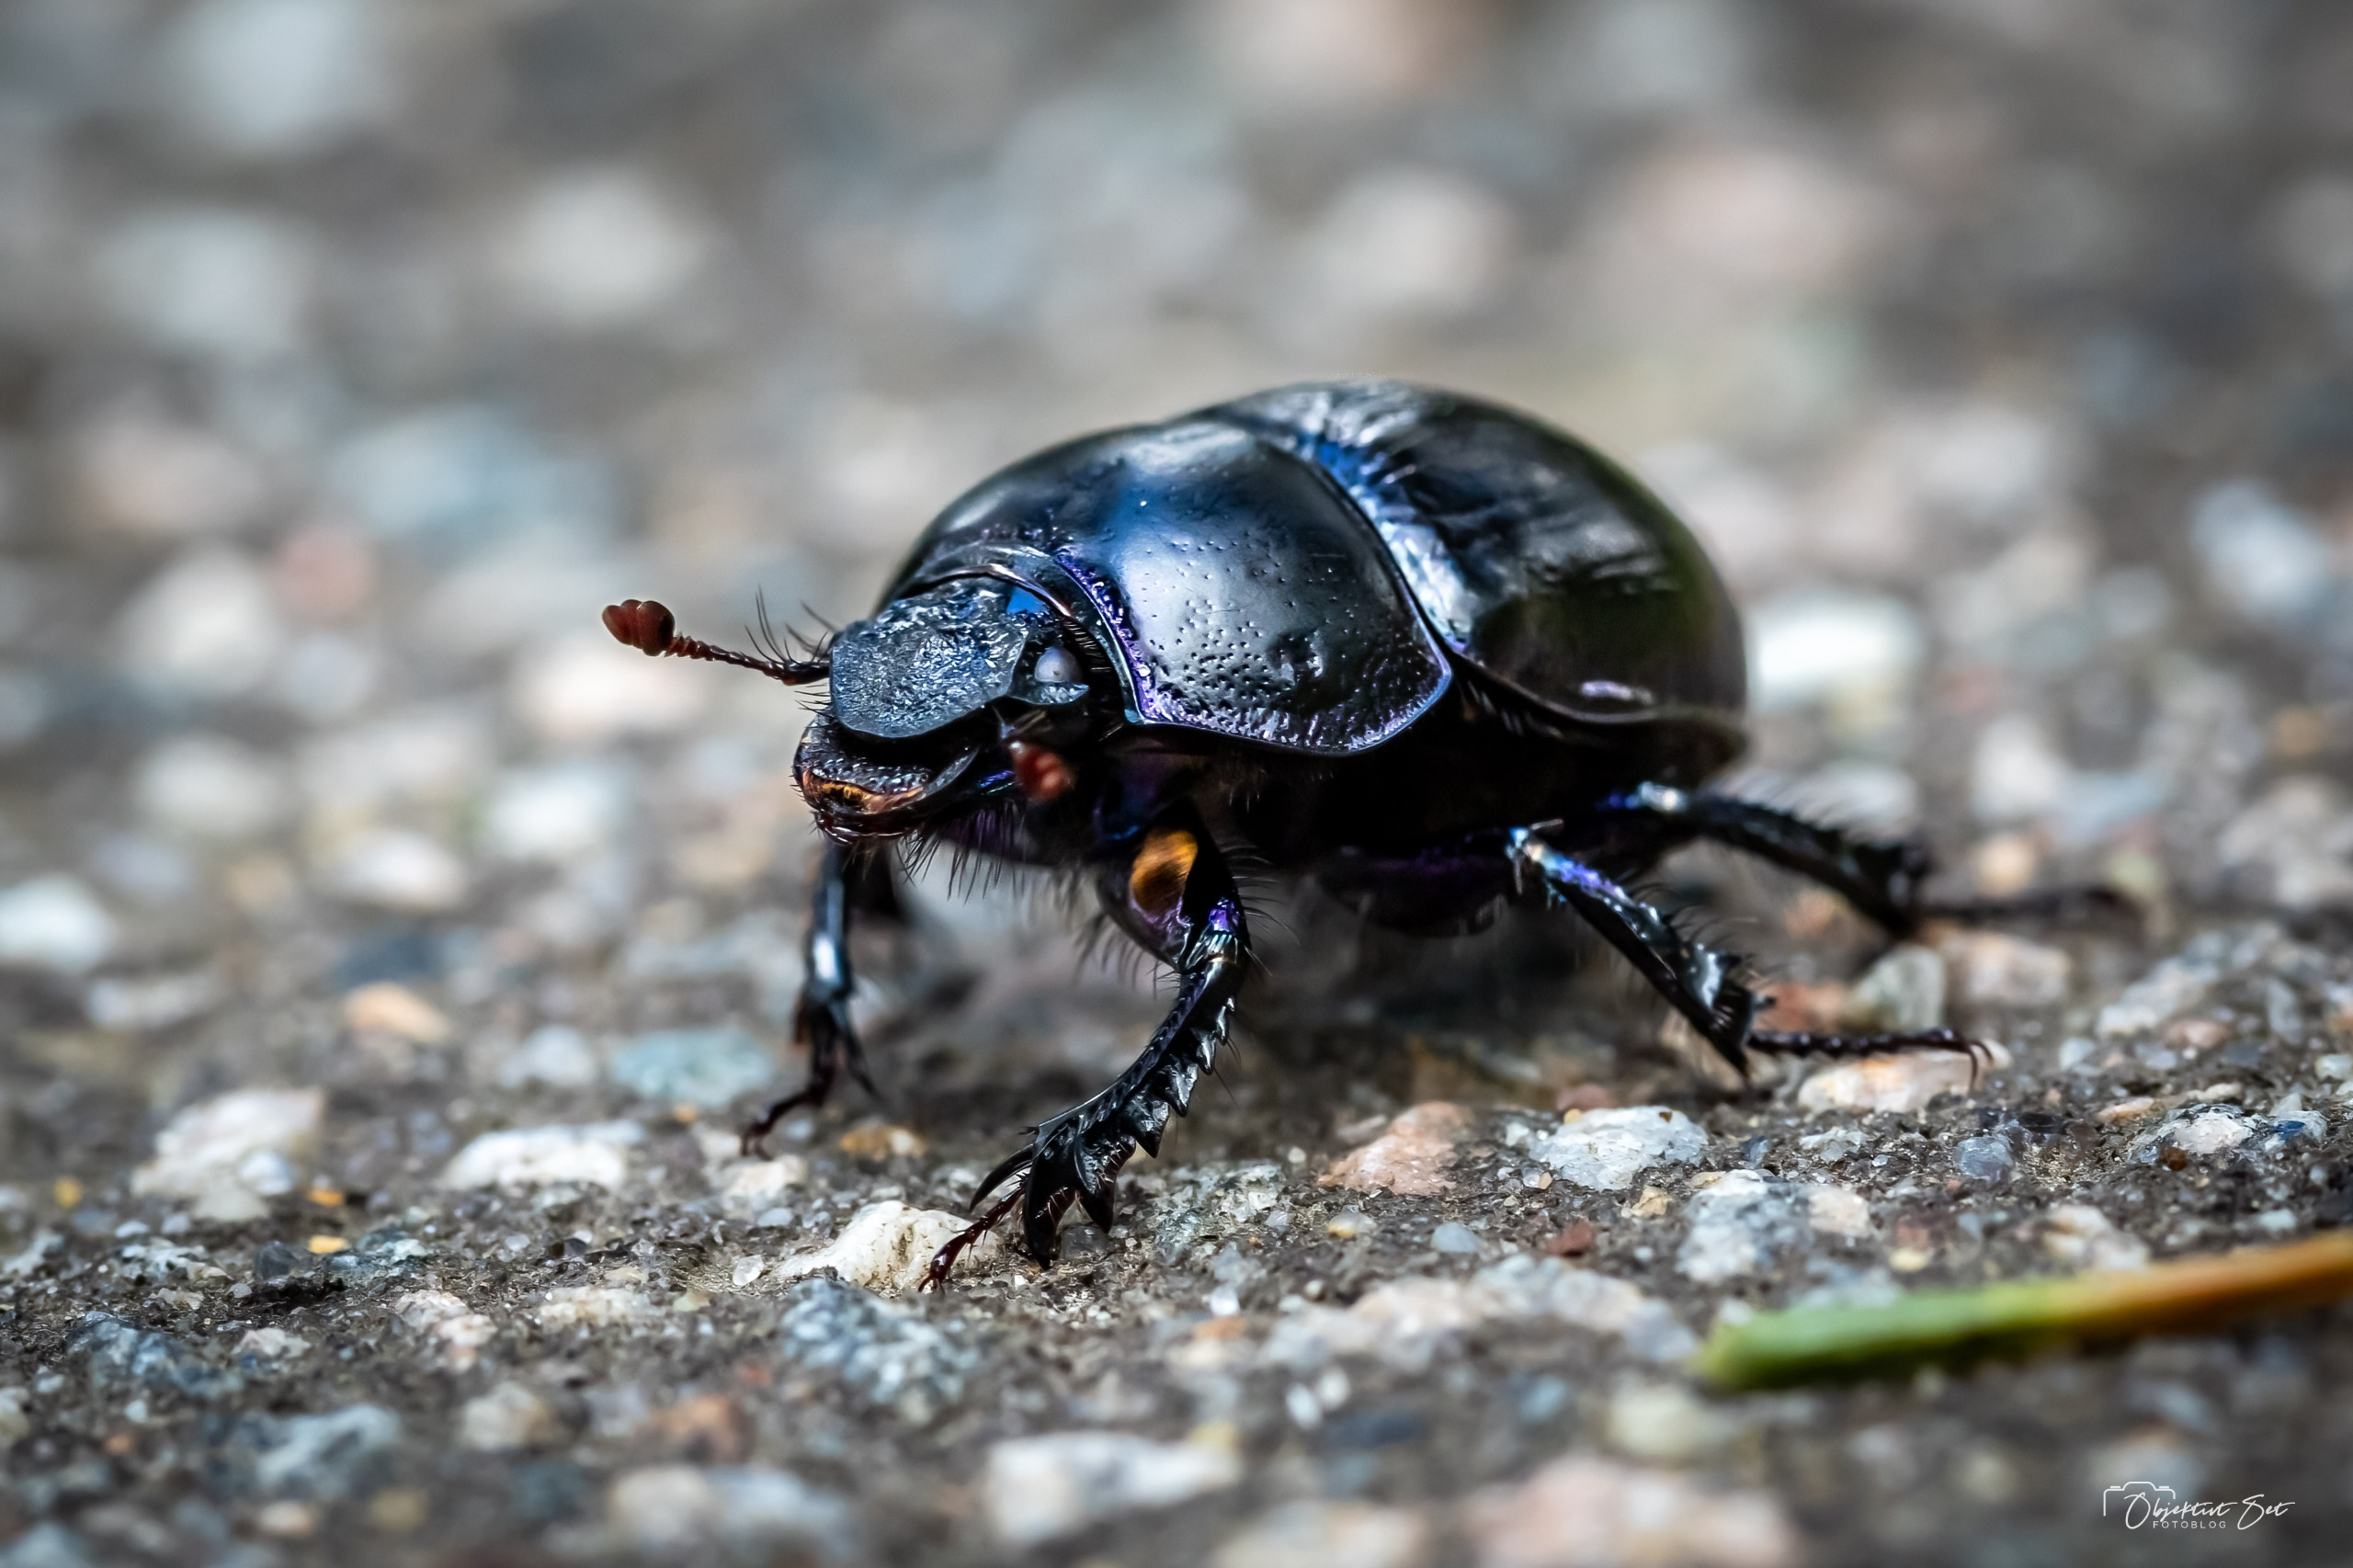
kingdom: Animalia
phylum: Arthropoda
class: Insecta
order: Coleoptera
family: Geotrupidae
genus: Anoplotrupes
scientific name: Anoplotrupes stercorosus
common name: Skovskarnbasse
